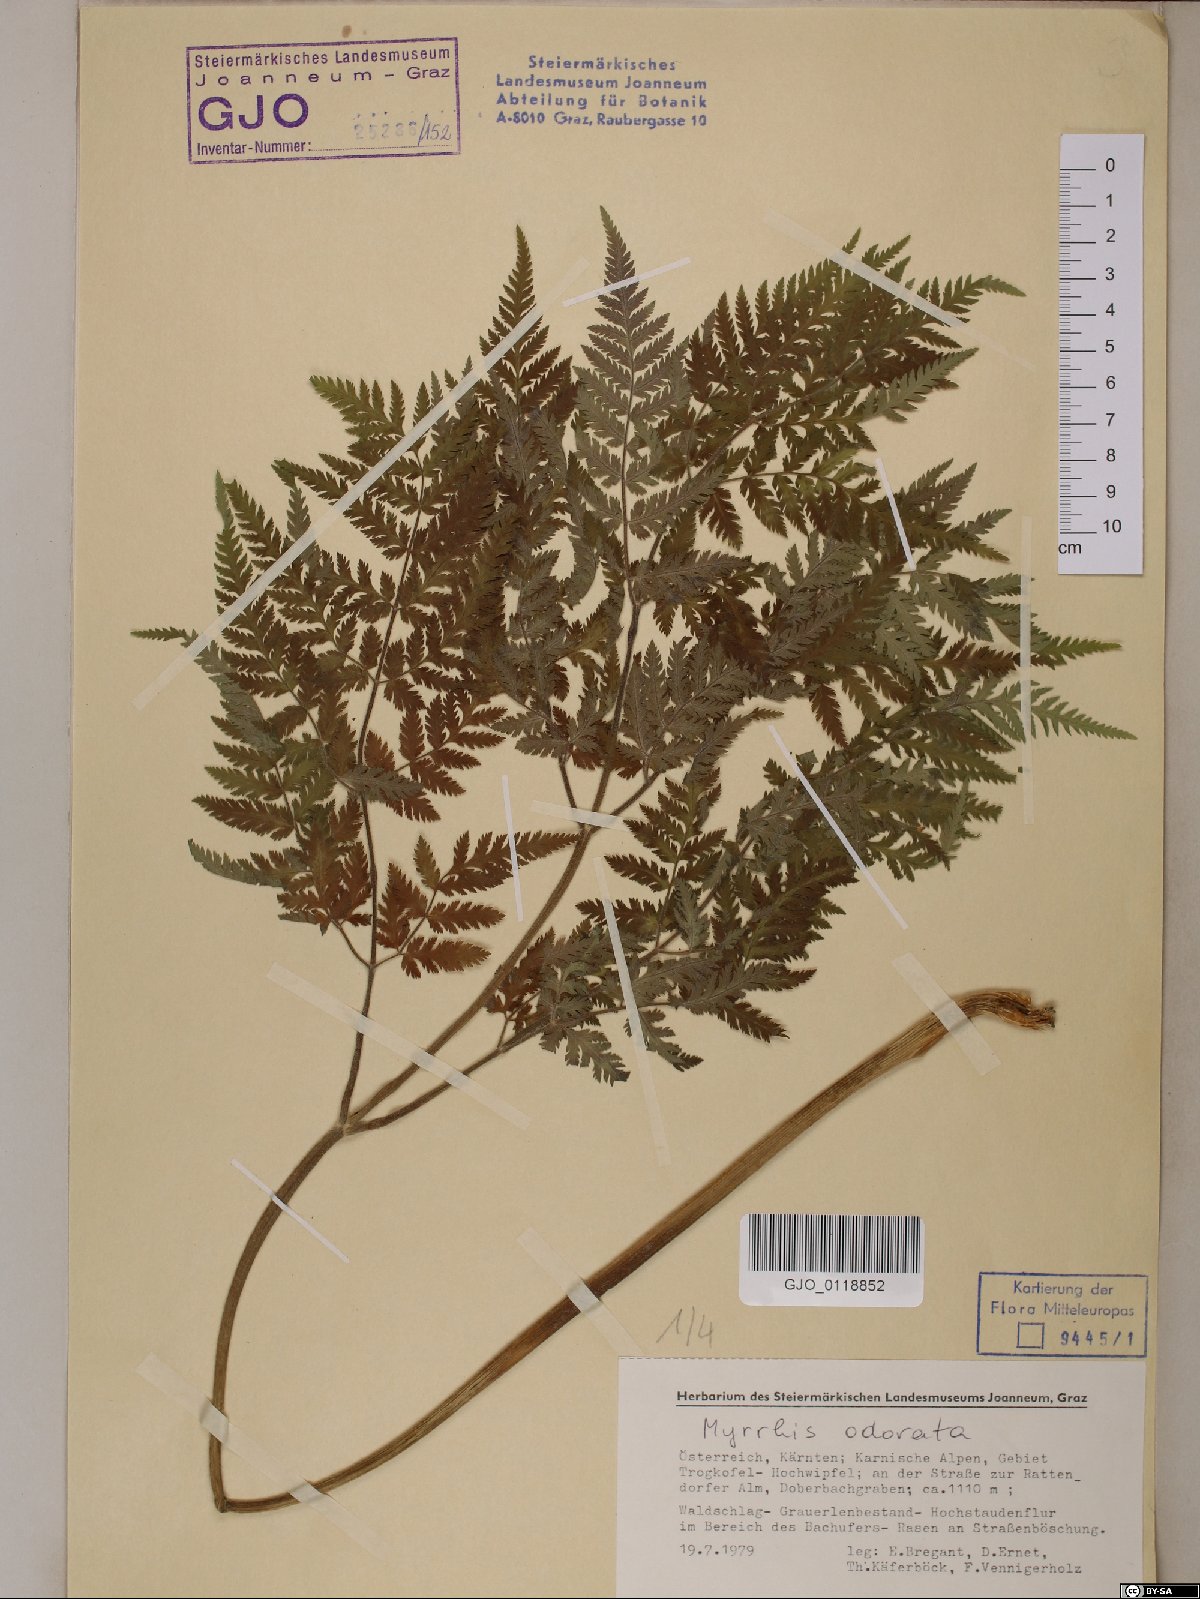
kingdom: Plantae
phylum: Tracheophyta
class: Magnoliopsida
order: Apiales
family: Apiaceae
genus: Myrrhis
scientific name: Myrrhis odorata
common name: Sweet cicely
